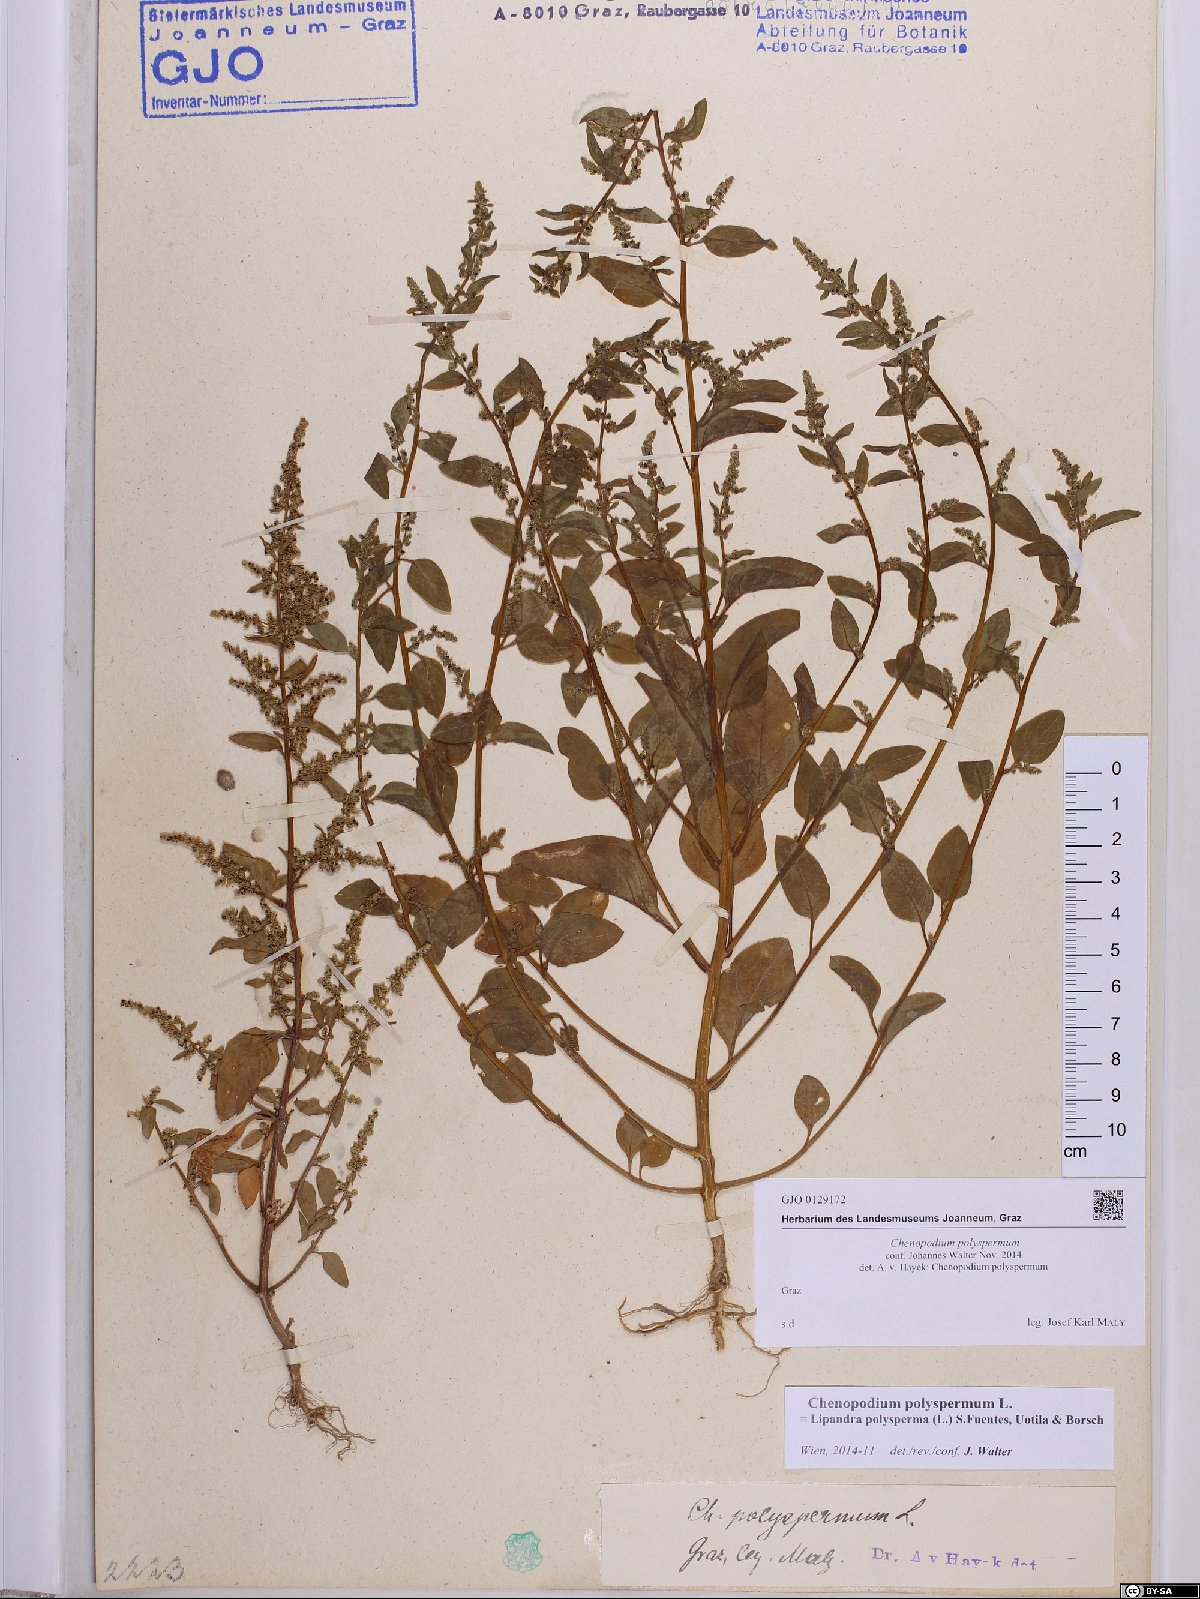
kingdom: Plantae
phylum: Tracheophyta
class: Magnoliopsida
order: Caryophyllales
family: Amaranthaceae
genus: Lipandra
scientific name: Lipandra polysperma
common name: Many-seed goosefoot
